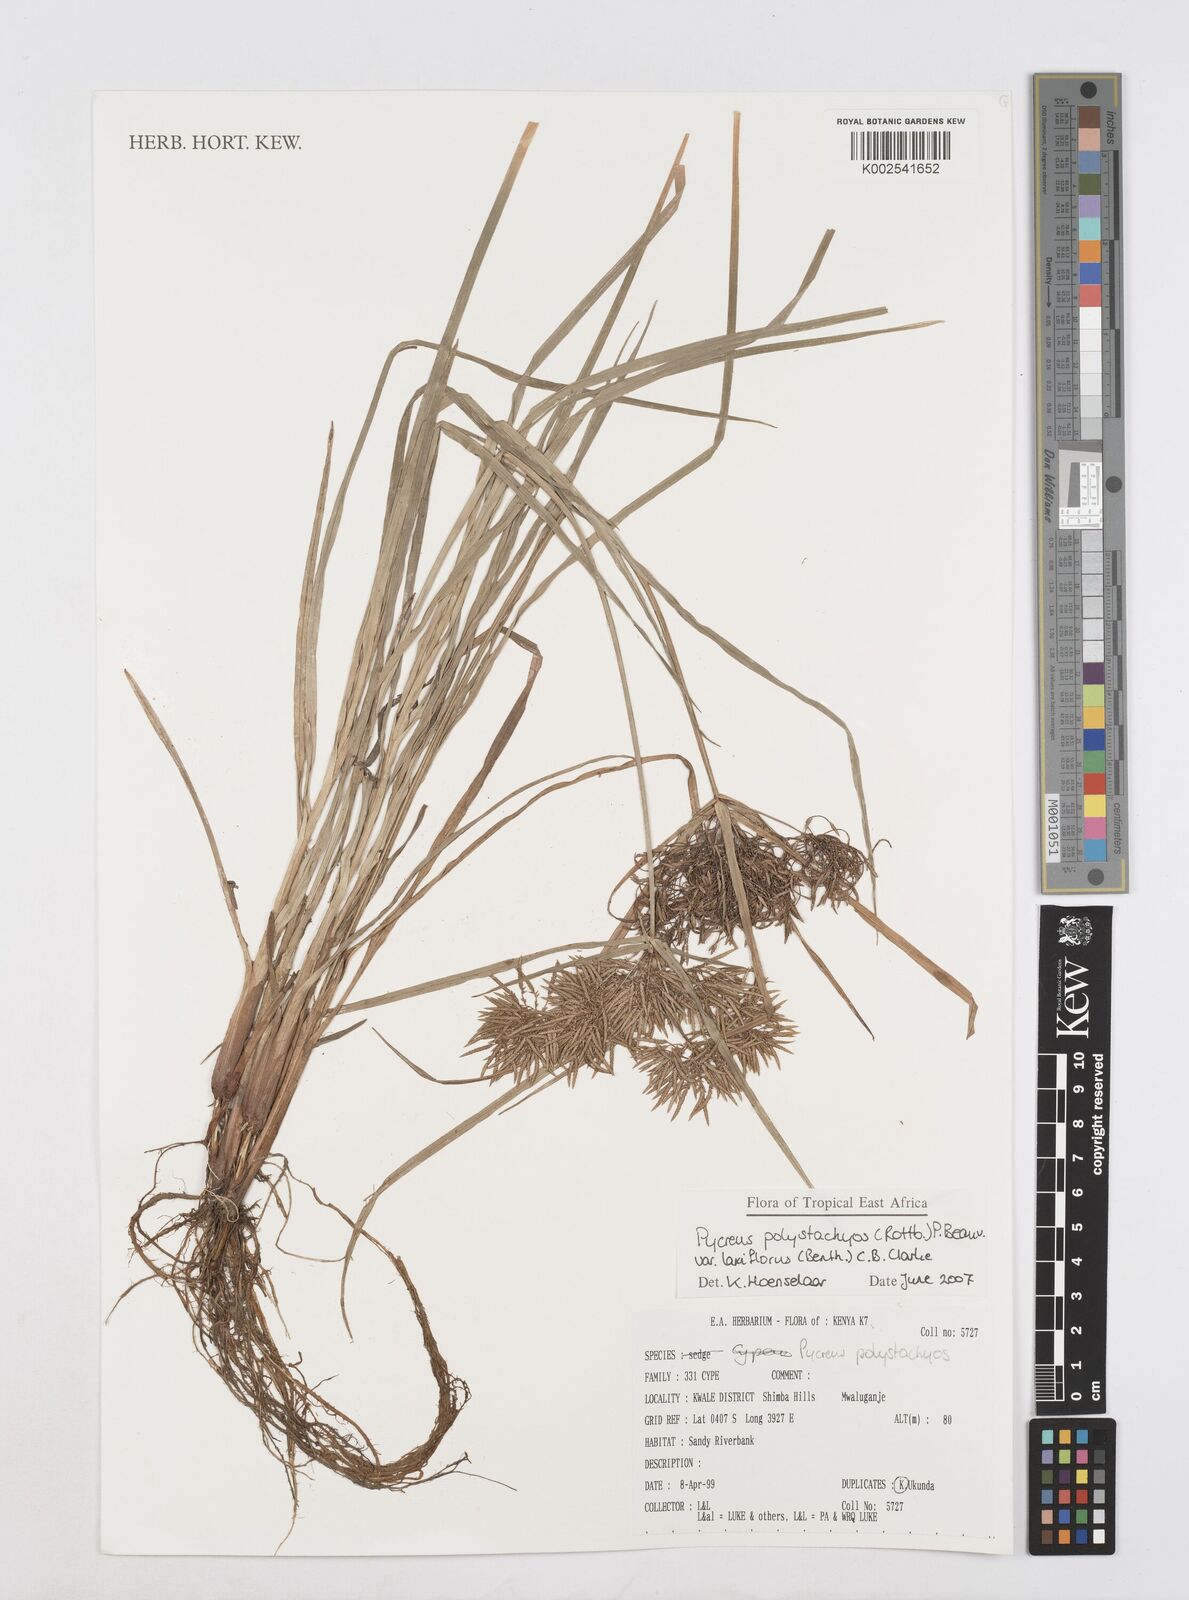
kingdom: Plantae
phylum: Tracheophyta
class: Liliopsida
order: Poales
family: Cyperaceae
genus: Cyperus
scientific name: Cyperus polystachyos
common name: Bunchy flat sedge
